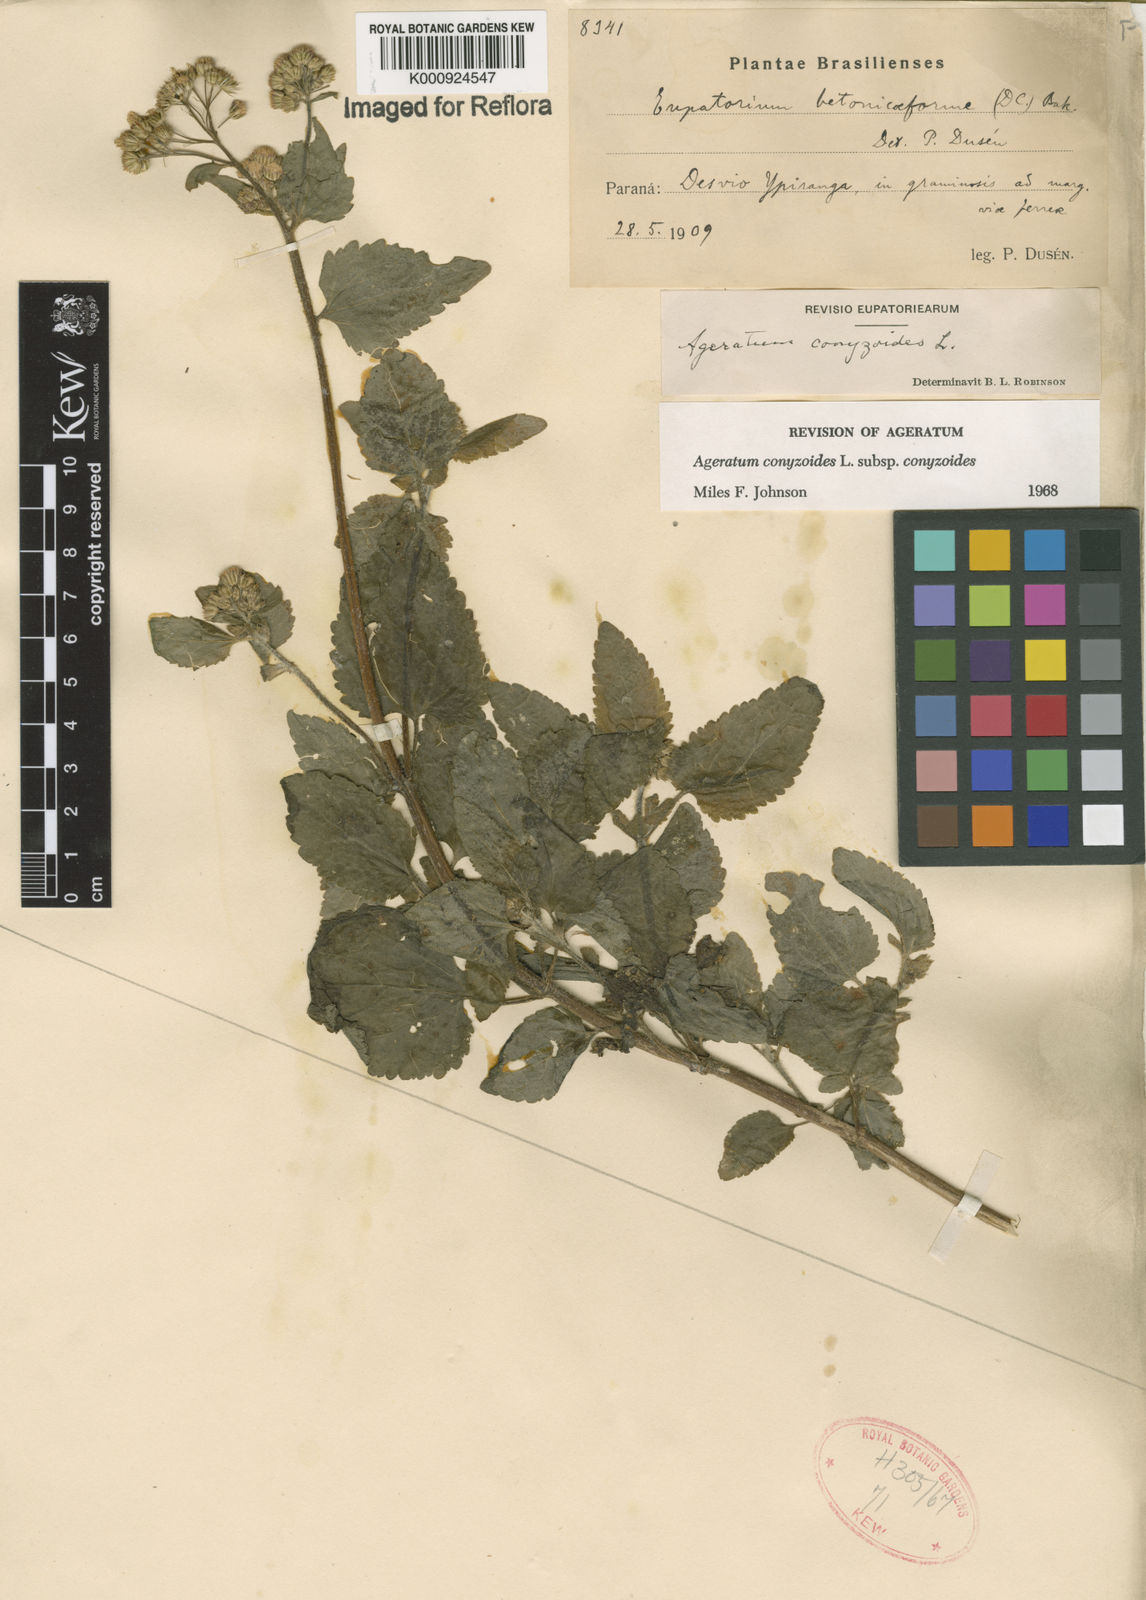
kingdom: Plantae
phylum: Tracheophyta
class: Magnoliopsida
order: Asterales
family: Asteraceae
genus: Ageratum
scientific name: Ageratum conyzoides
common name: Tropical whiteweed
